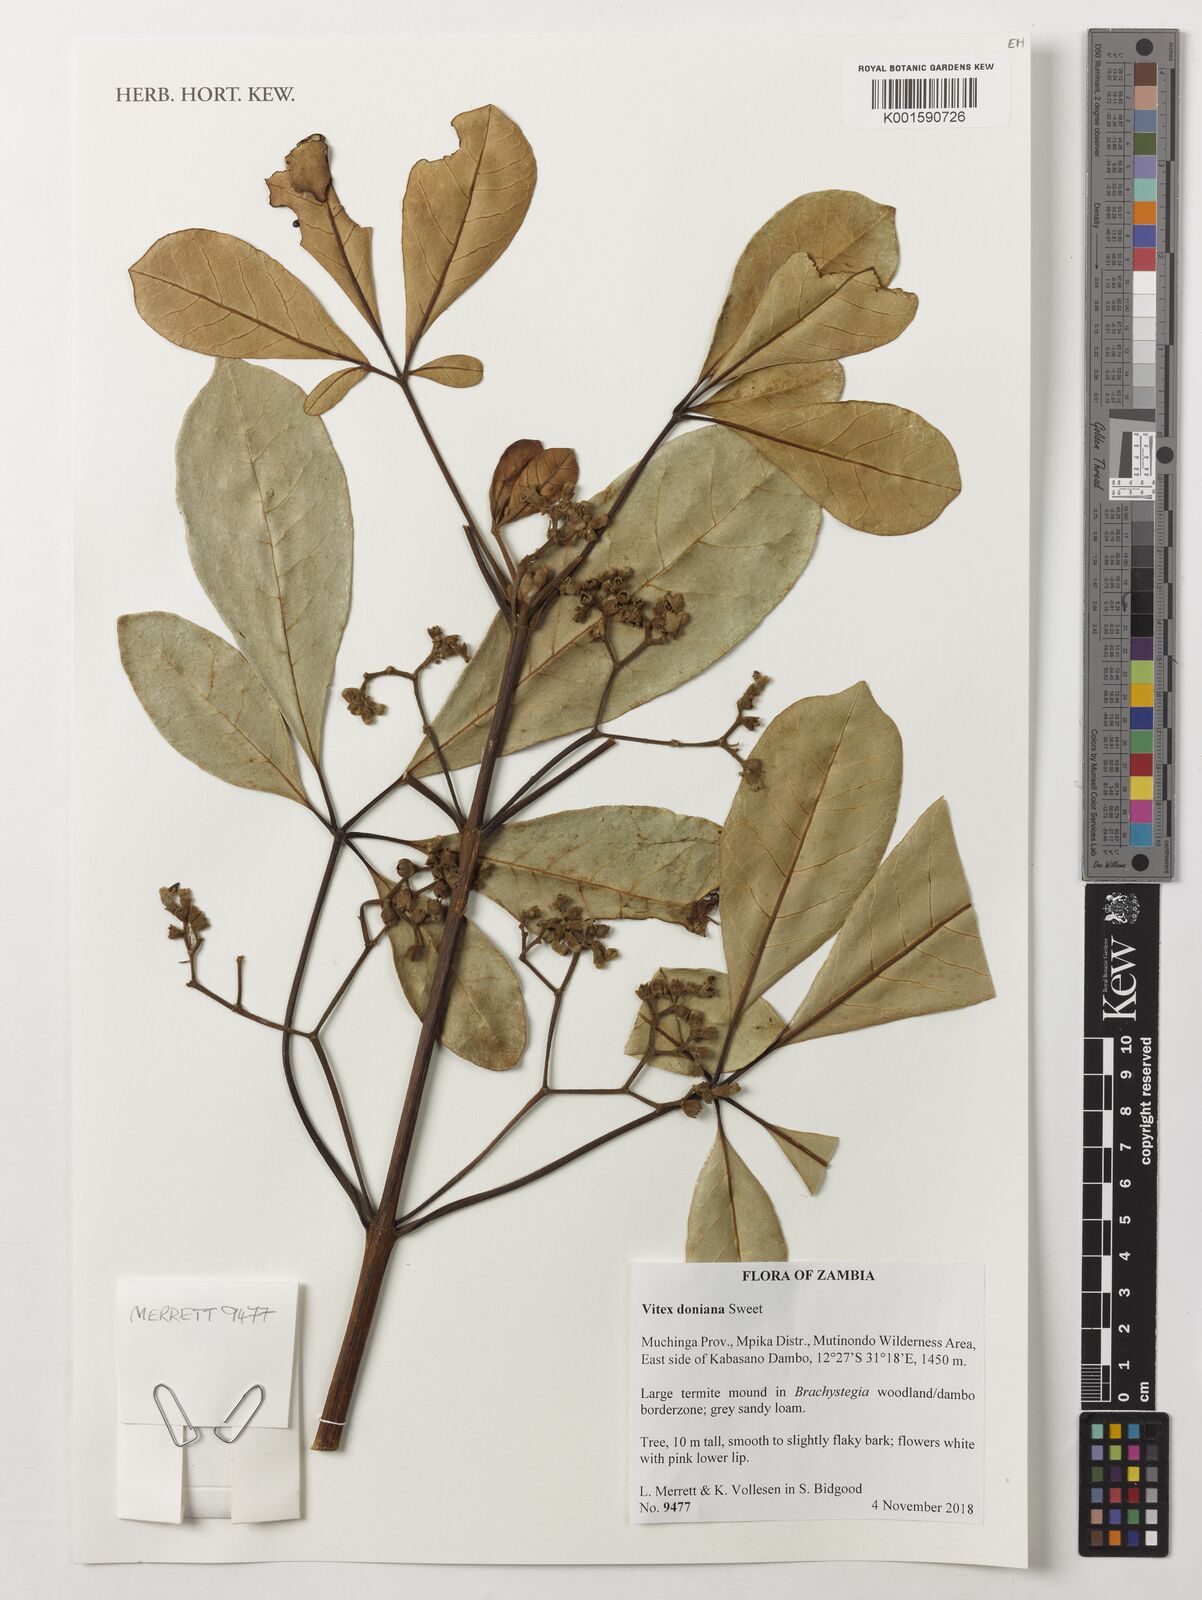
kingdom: Plantae
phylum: Tracheophyta
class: Magnoliopsida
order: Lamiales
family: Lamiaceae
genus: Vitex
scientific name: Vitex doniana
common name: Black plum
